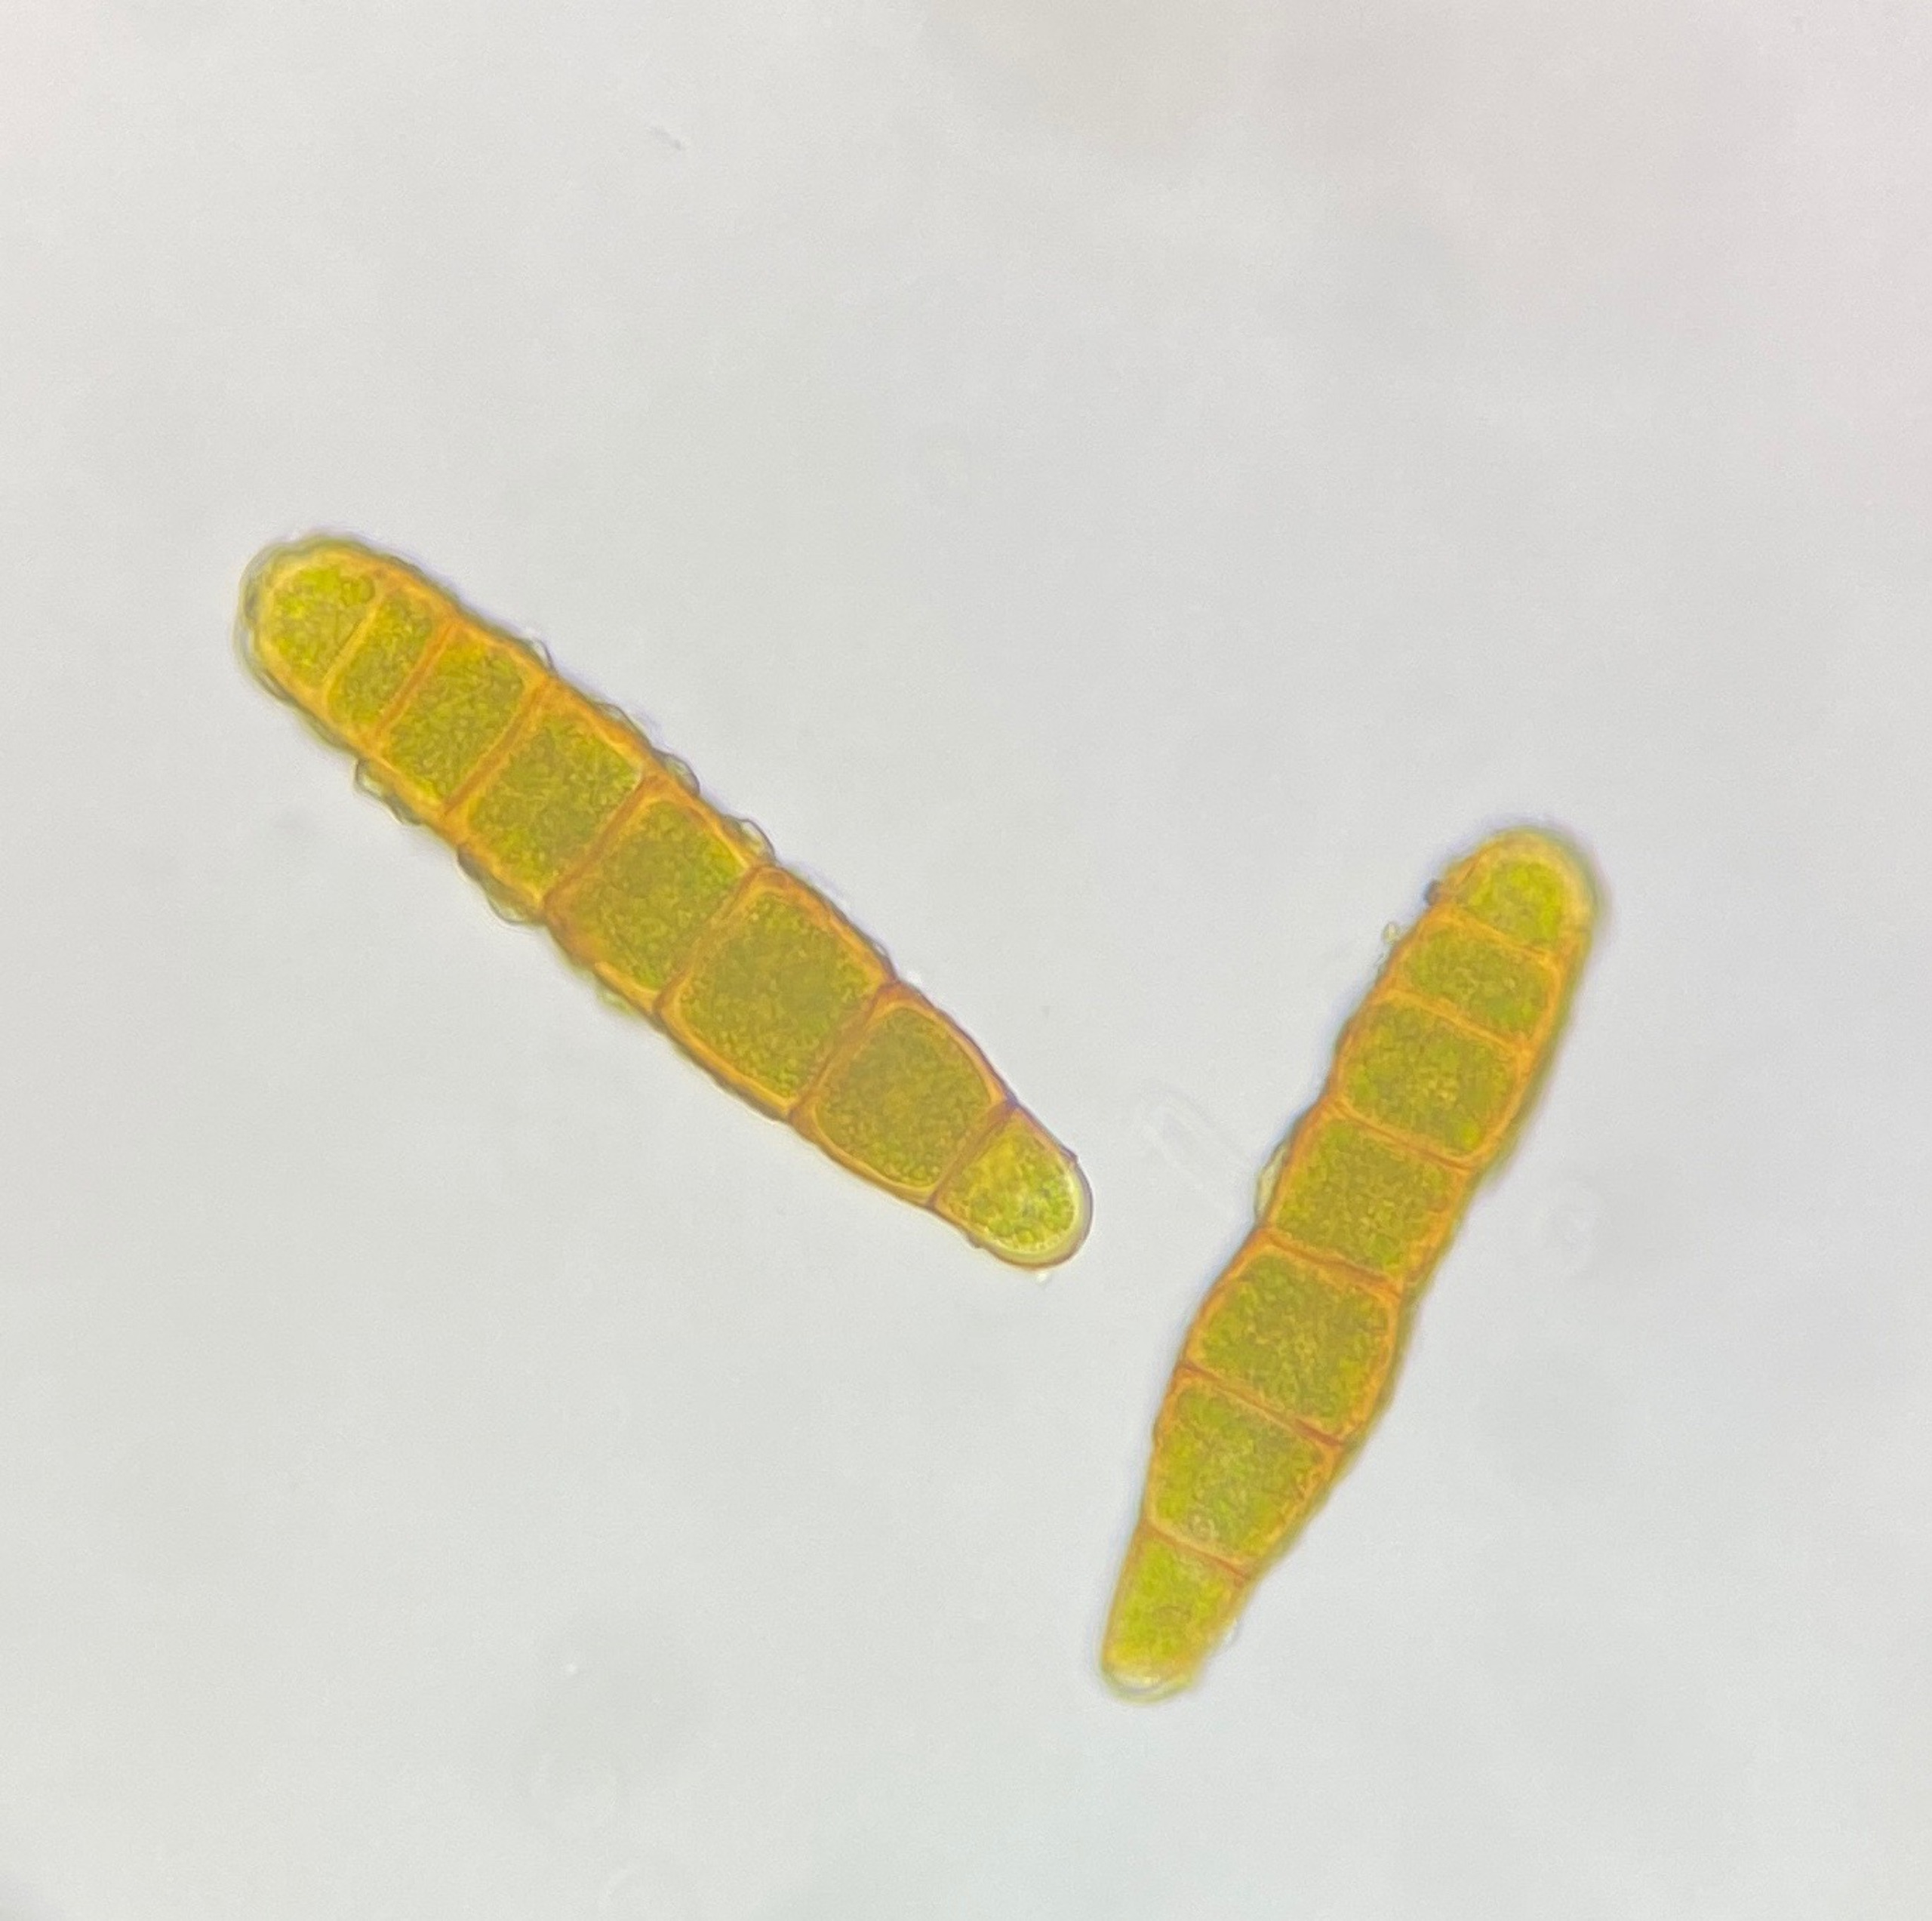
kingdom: Plantae
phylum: Bryophyta
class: Bryopsida
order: Orthotrichales
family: Orthotrichaceae
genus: Plenogemma
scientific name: Plenogemma phyllantha
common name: Stor låddenhætte
